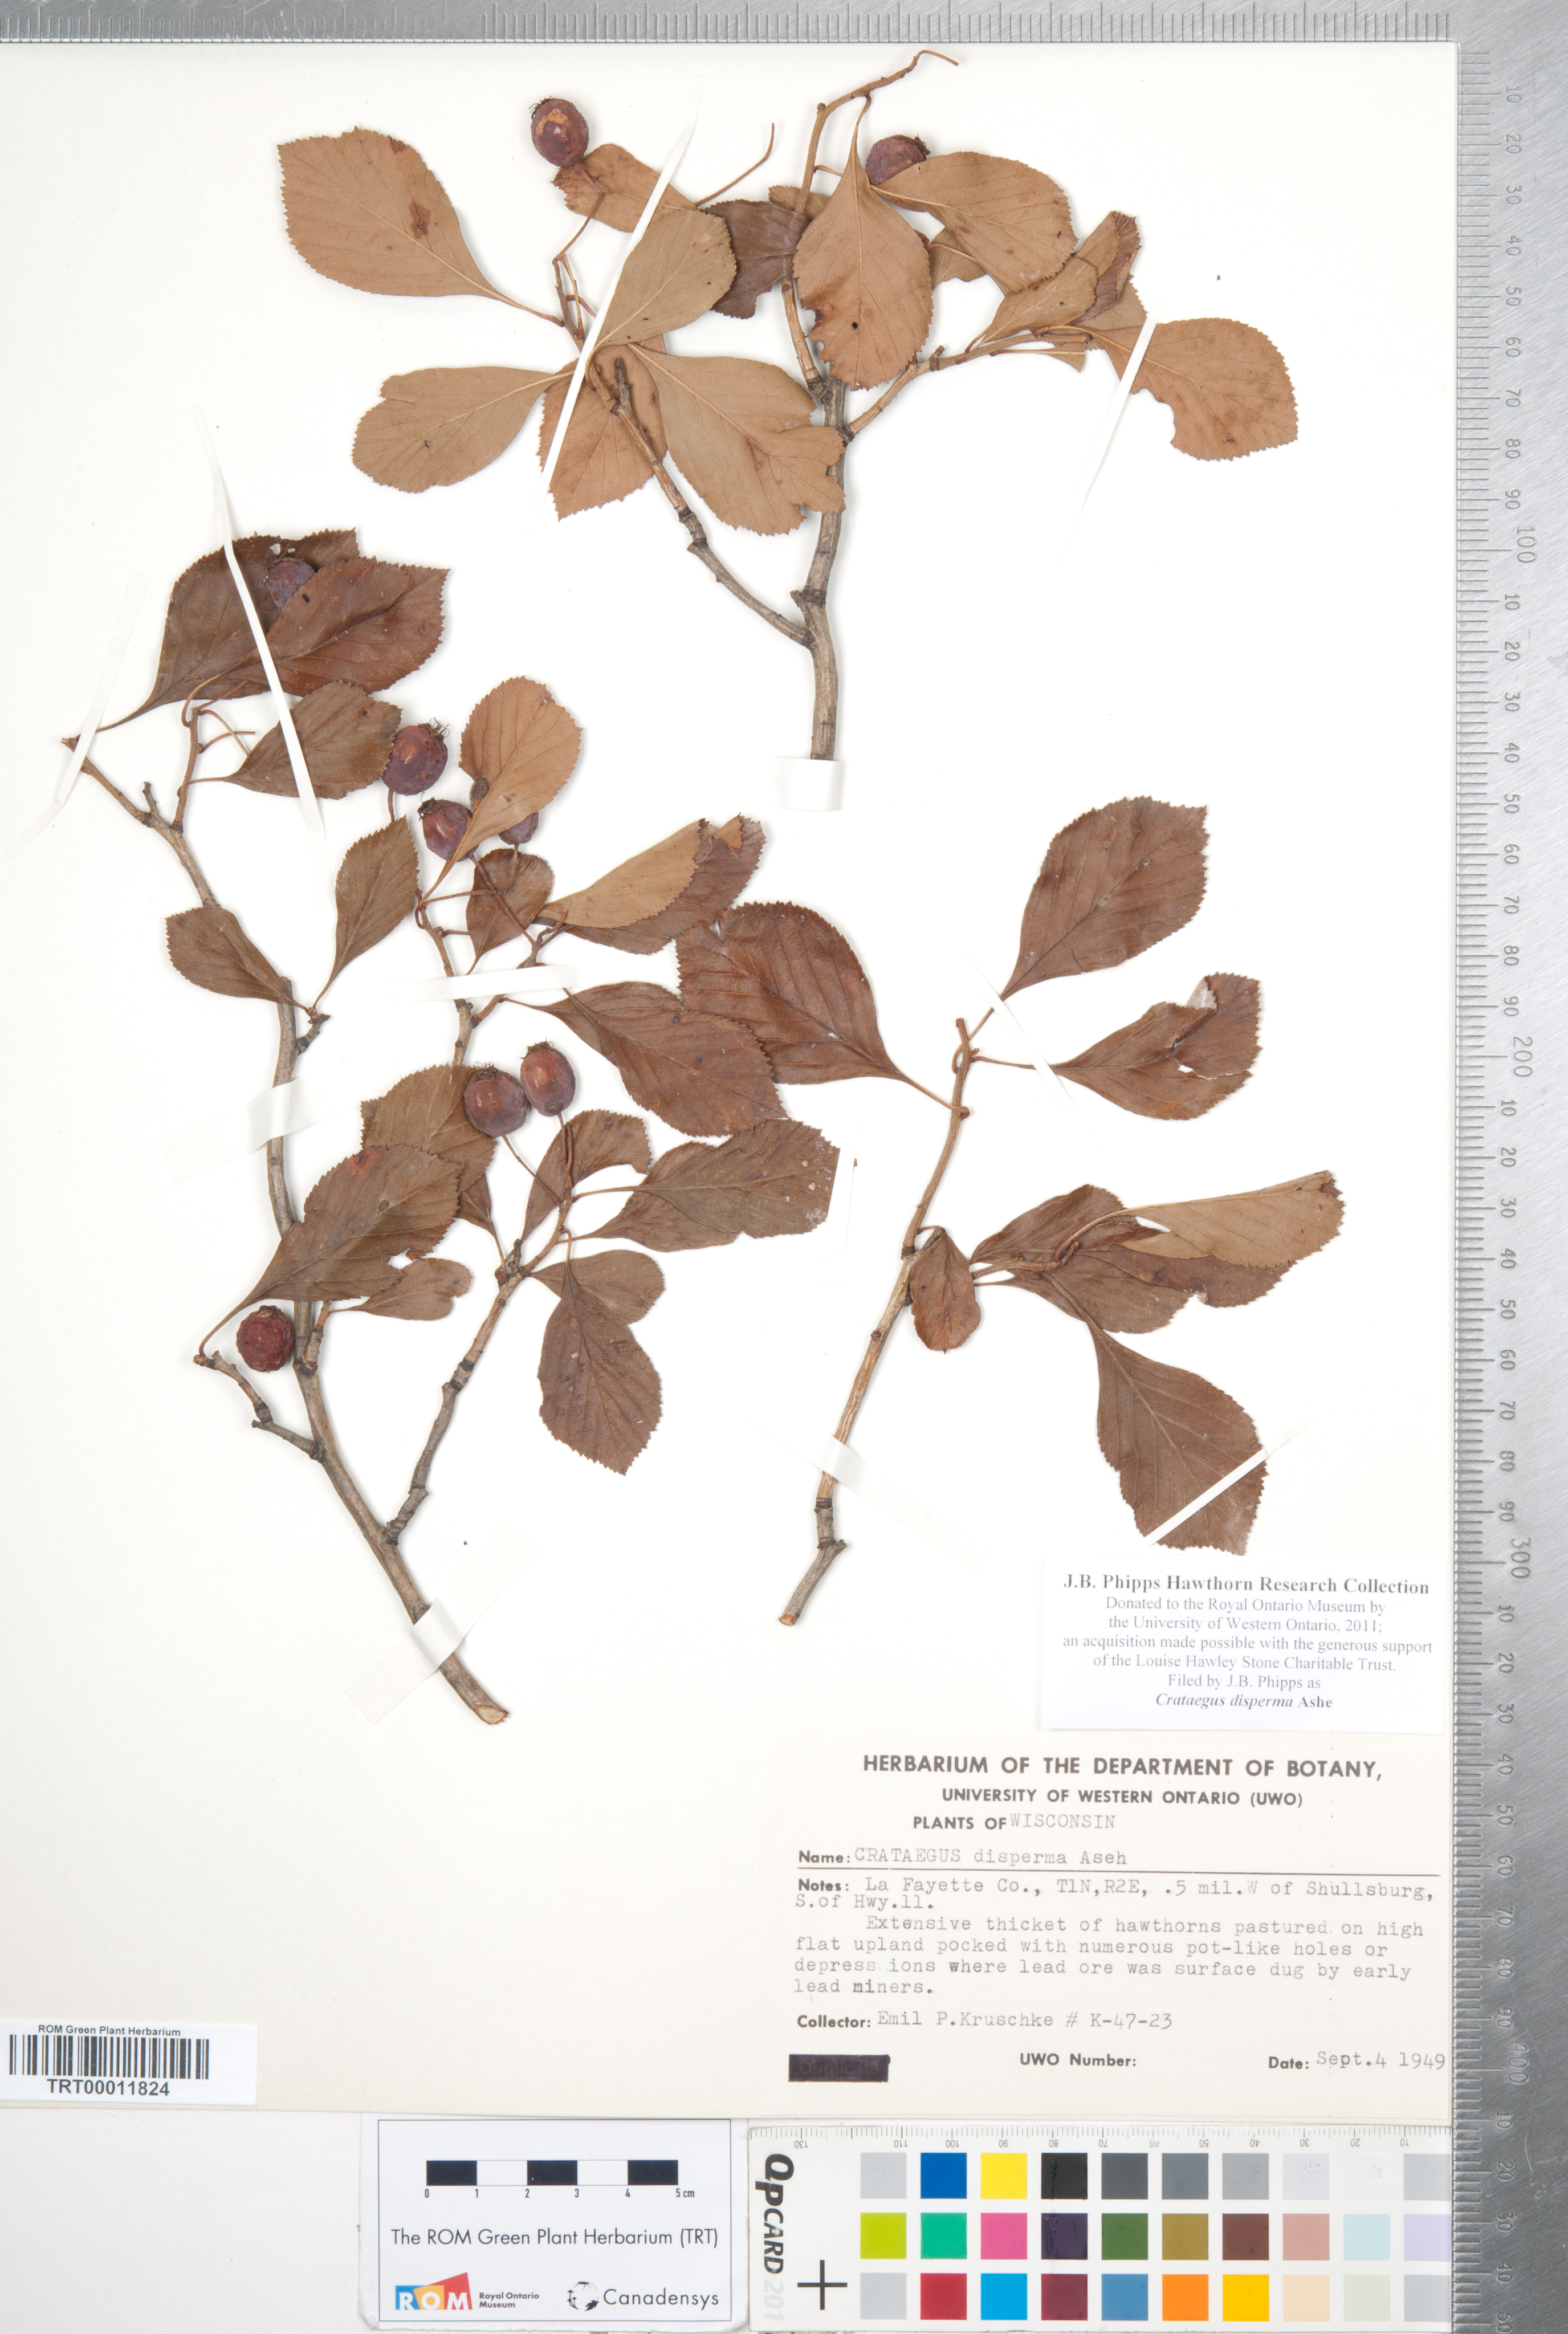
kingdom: Plantae
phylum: Tracheophyta
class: Magnoliopsida
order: Rosales
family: Rosaceae
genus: Crataegus
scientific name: Crataegus disperma
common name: Spreading hawthorn
